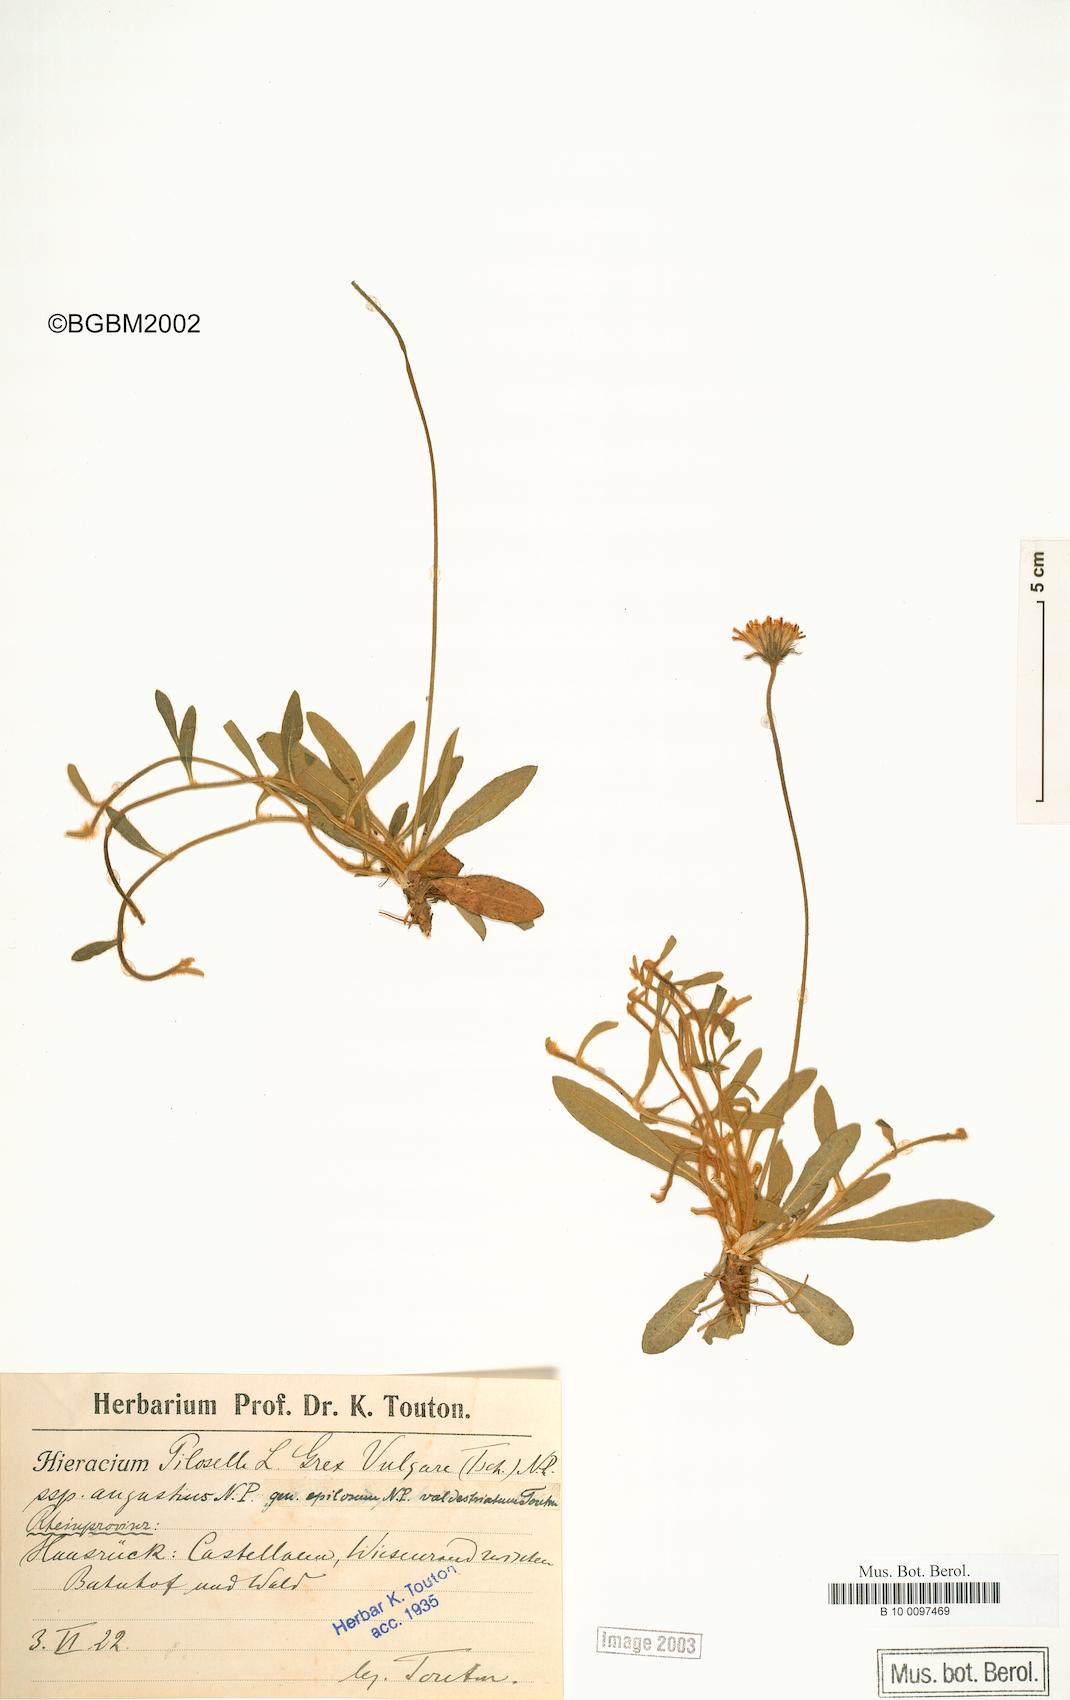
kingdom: Plantae
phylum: Tracheophyta
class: Magnoliopsida
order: Asterales
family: Asteraceae
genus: Pilosella
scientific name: Pilosella officinarum
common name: Mouse-ear hawkweed
